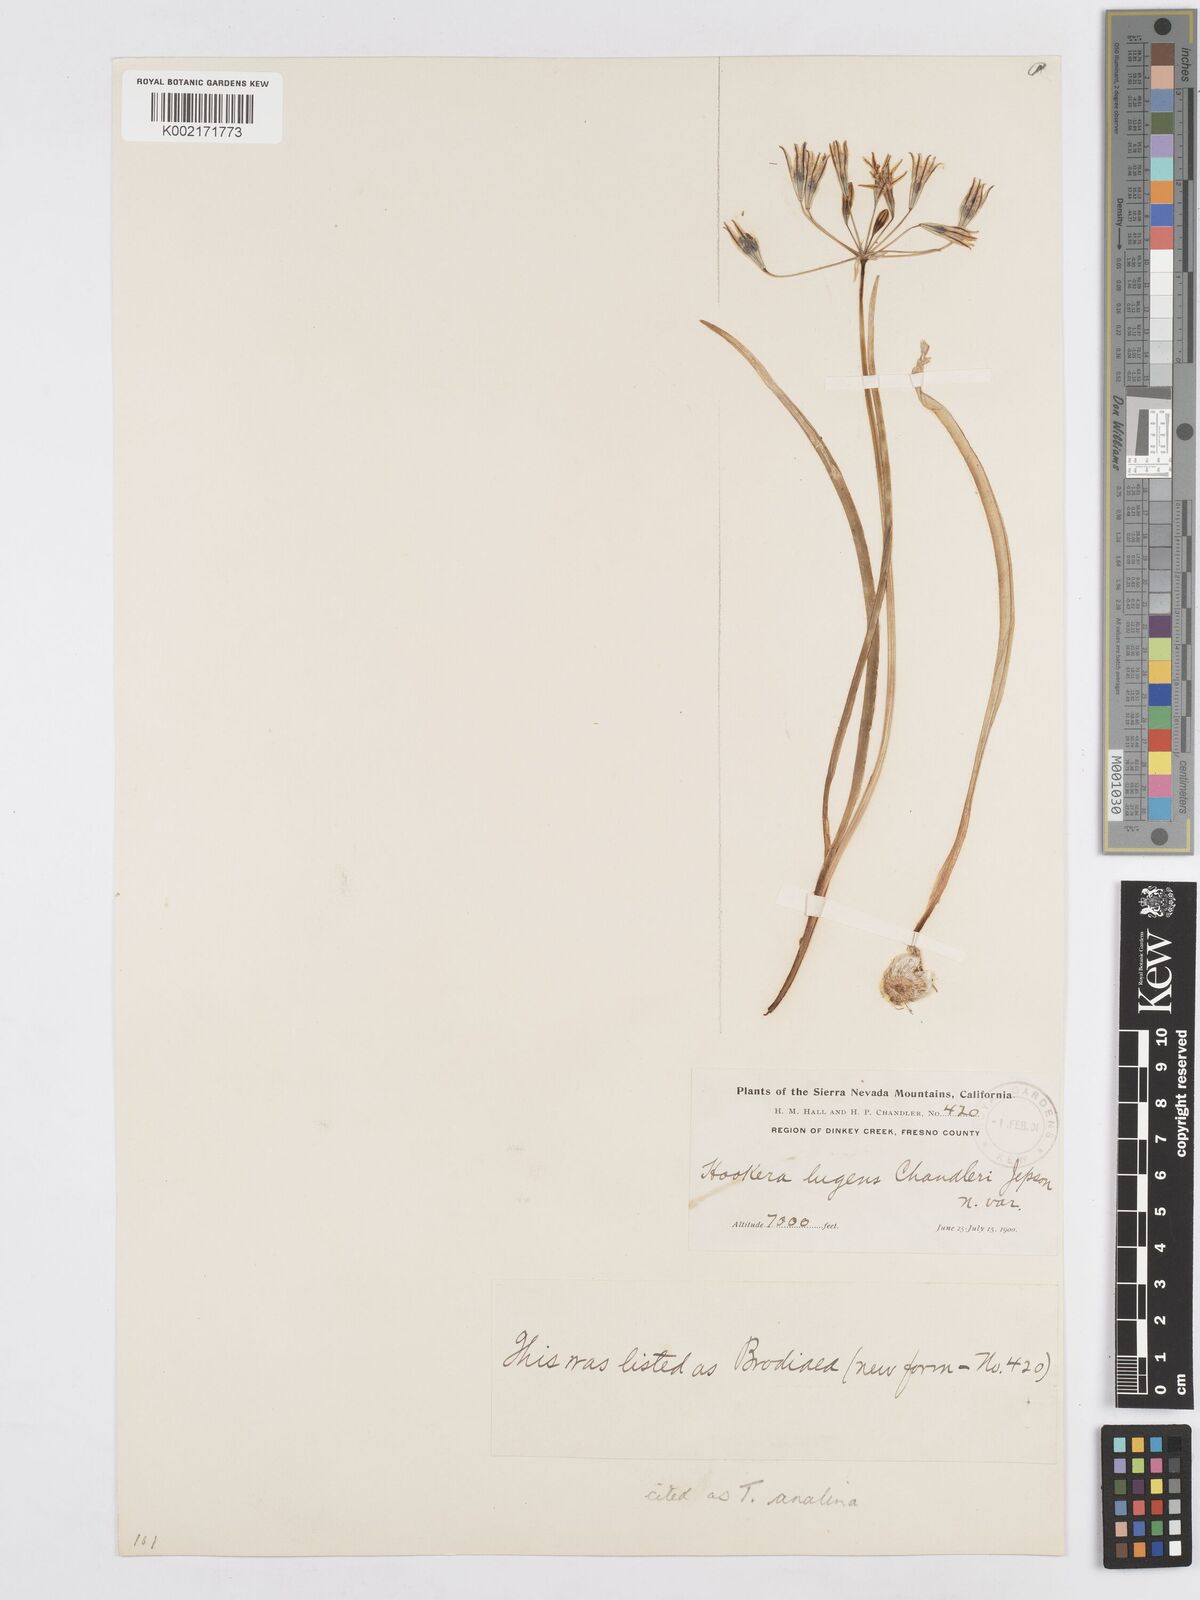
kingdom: Plantae
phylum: Tracheophyta
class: Liliopsida
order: Asparagales
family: Asparagaceae
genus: Triteleia
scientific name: Triteleia ixioides
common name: Yellow-brodiaea
